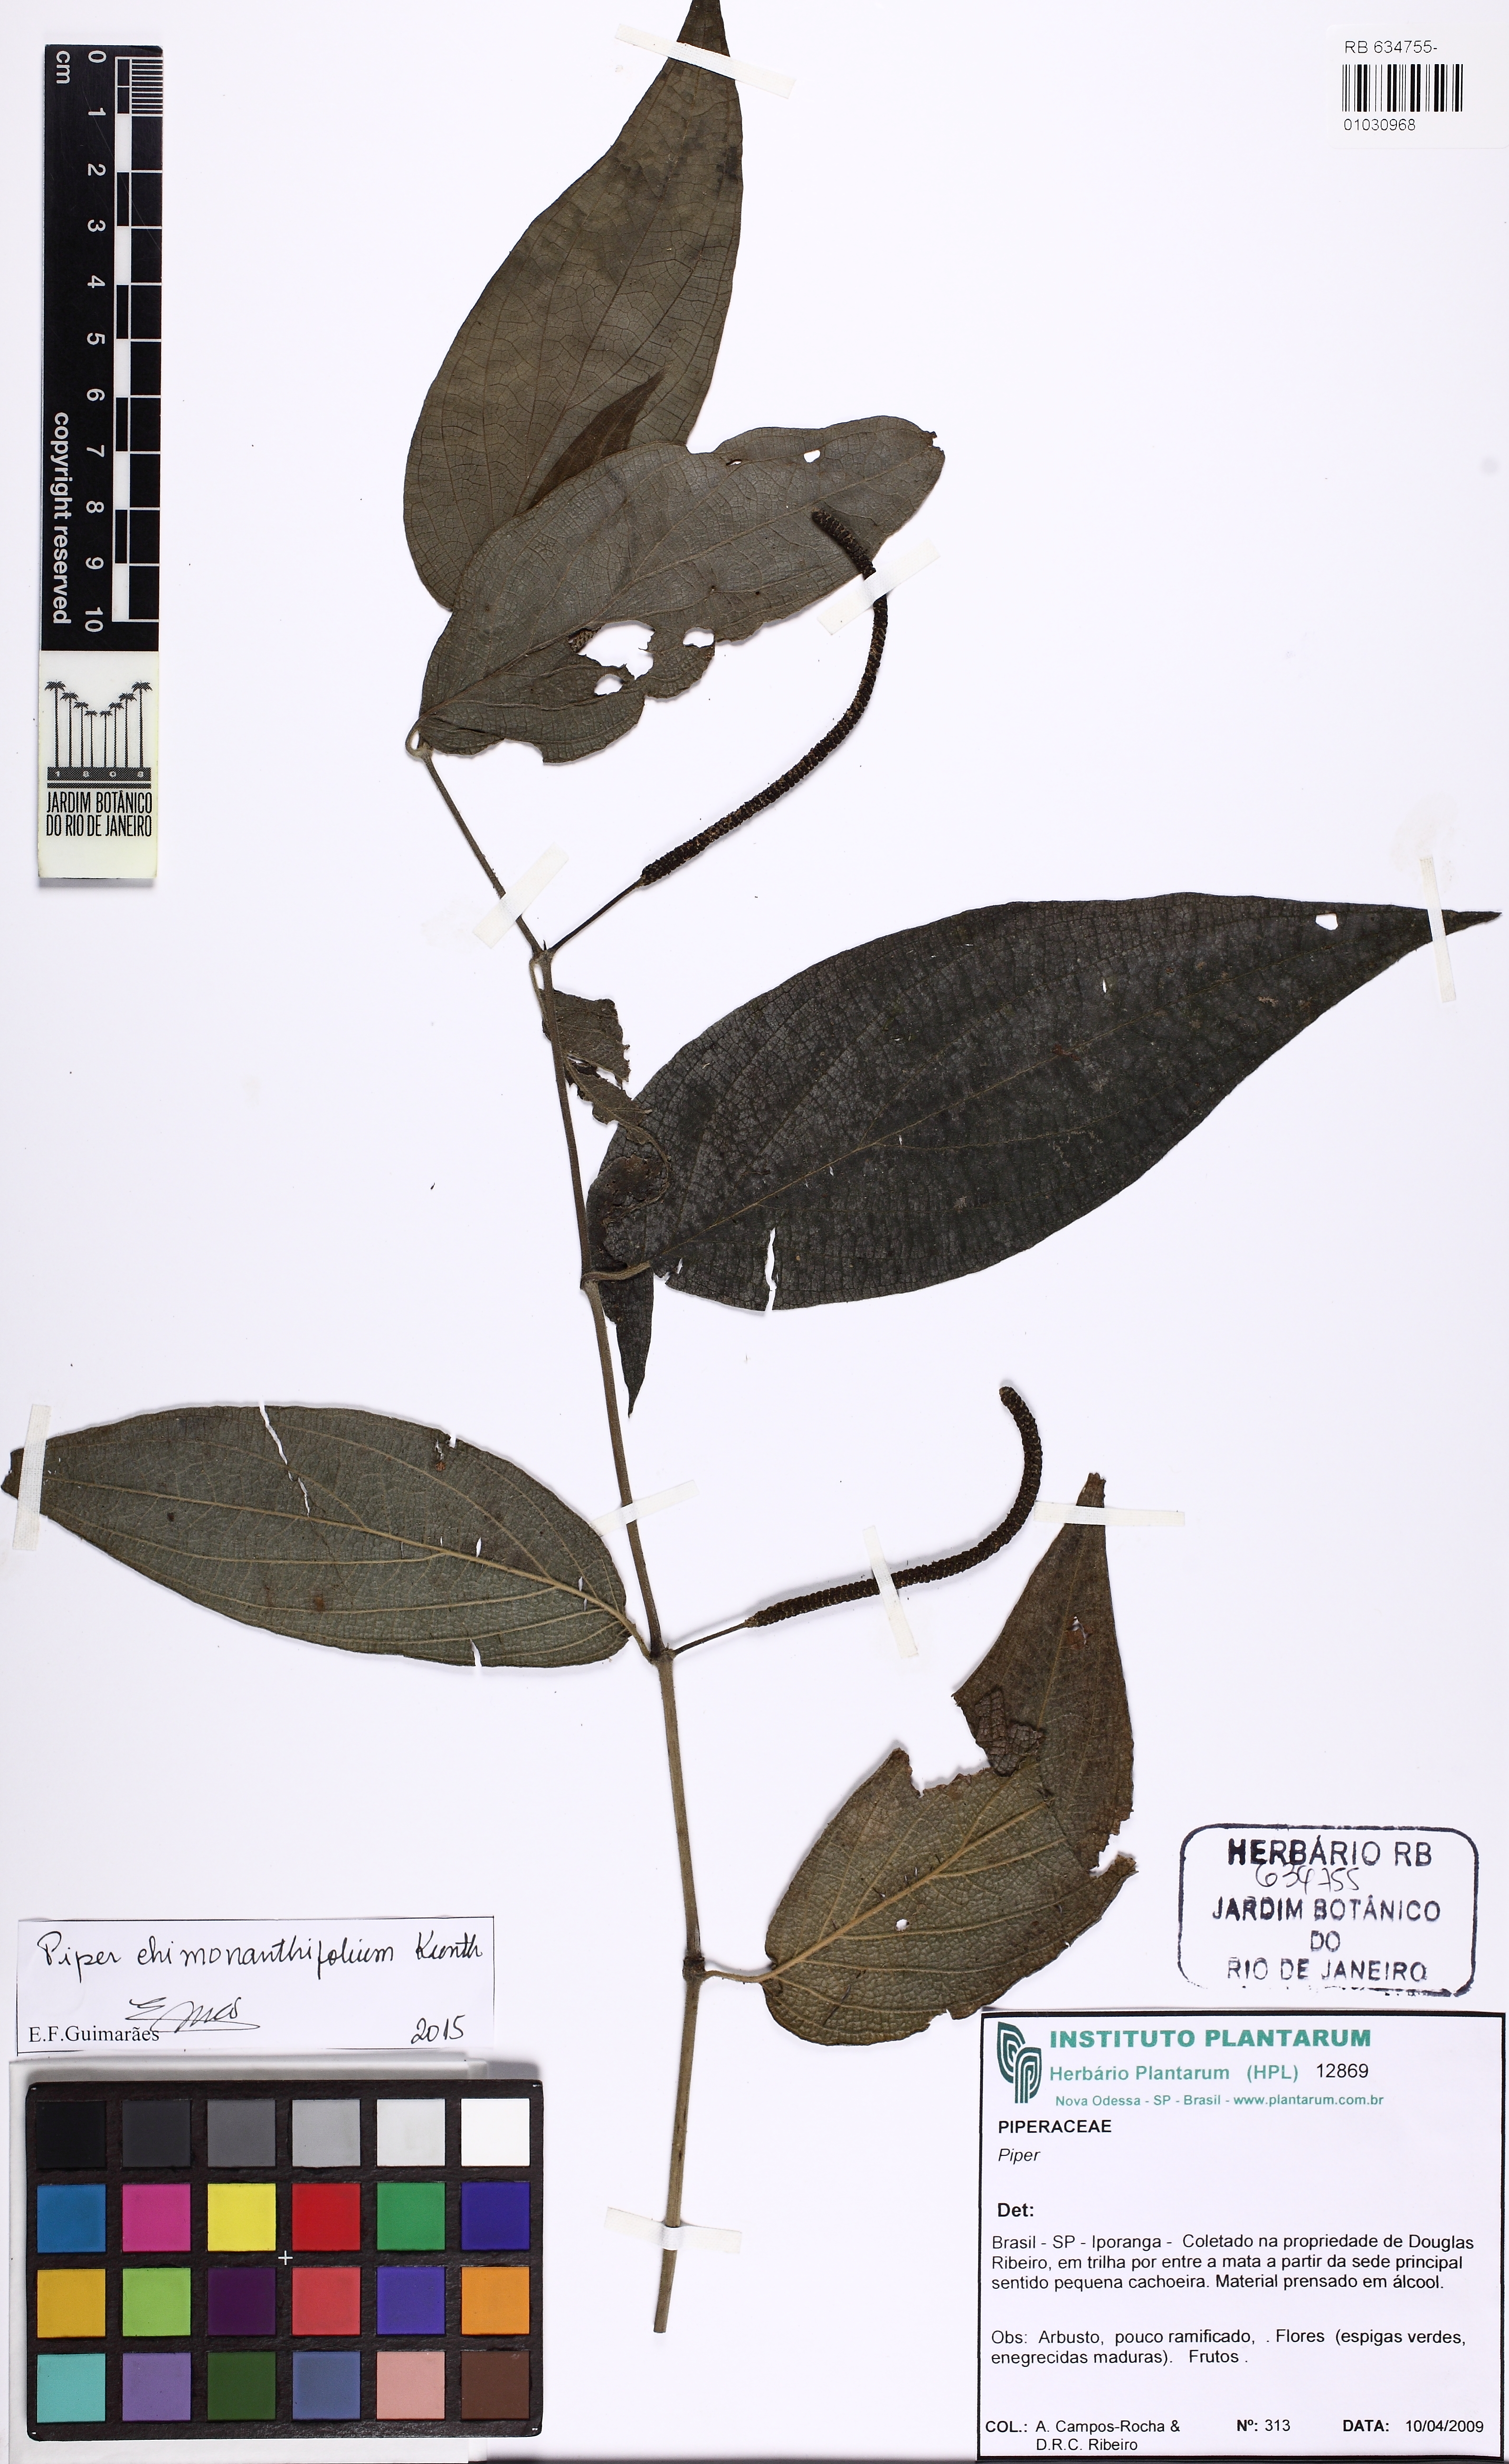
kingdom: Plantae
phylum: Tracheophyta
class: Magnoliopsida
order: Piperales
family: Piperaceae
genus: Piper
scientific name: Piper chimonanthifolium
